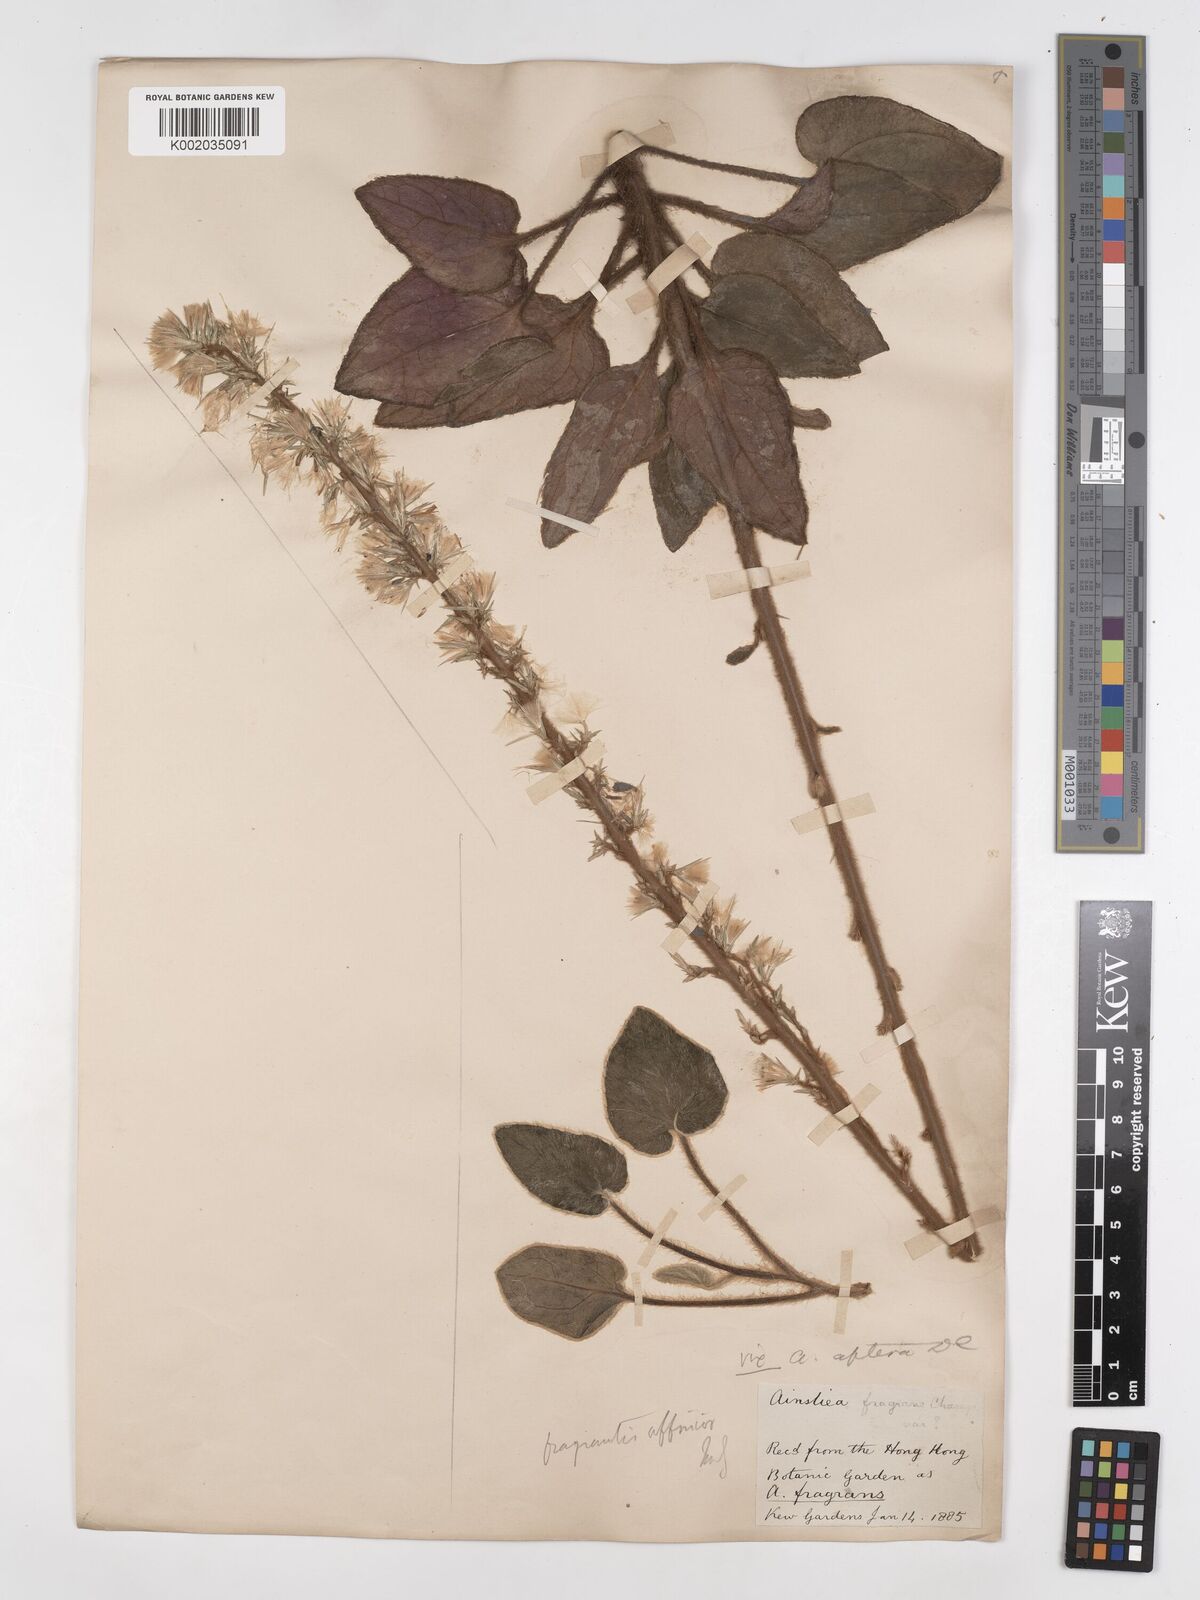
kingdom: Plantae
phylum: Tracheophyta
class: Magnoliopsida
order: Asterales
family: Asteraceae
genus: Ainsliaea
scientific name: Ainsliaea fragrans
